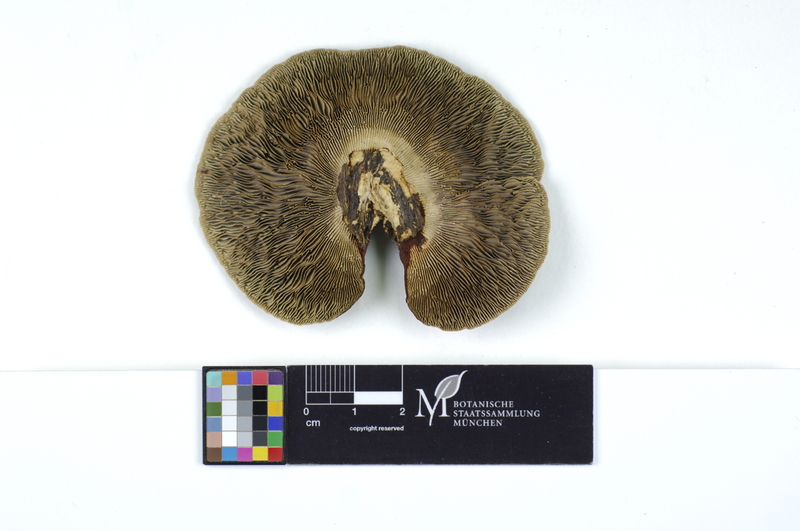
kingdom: Fungi
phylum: Basidiomycota
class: Agaricomycetes
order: Polyporales
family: Polyporaceae
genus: Daedaleopsis
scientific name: Daedaleopsis confragosa
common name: Blushing bracket
